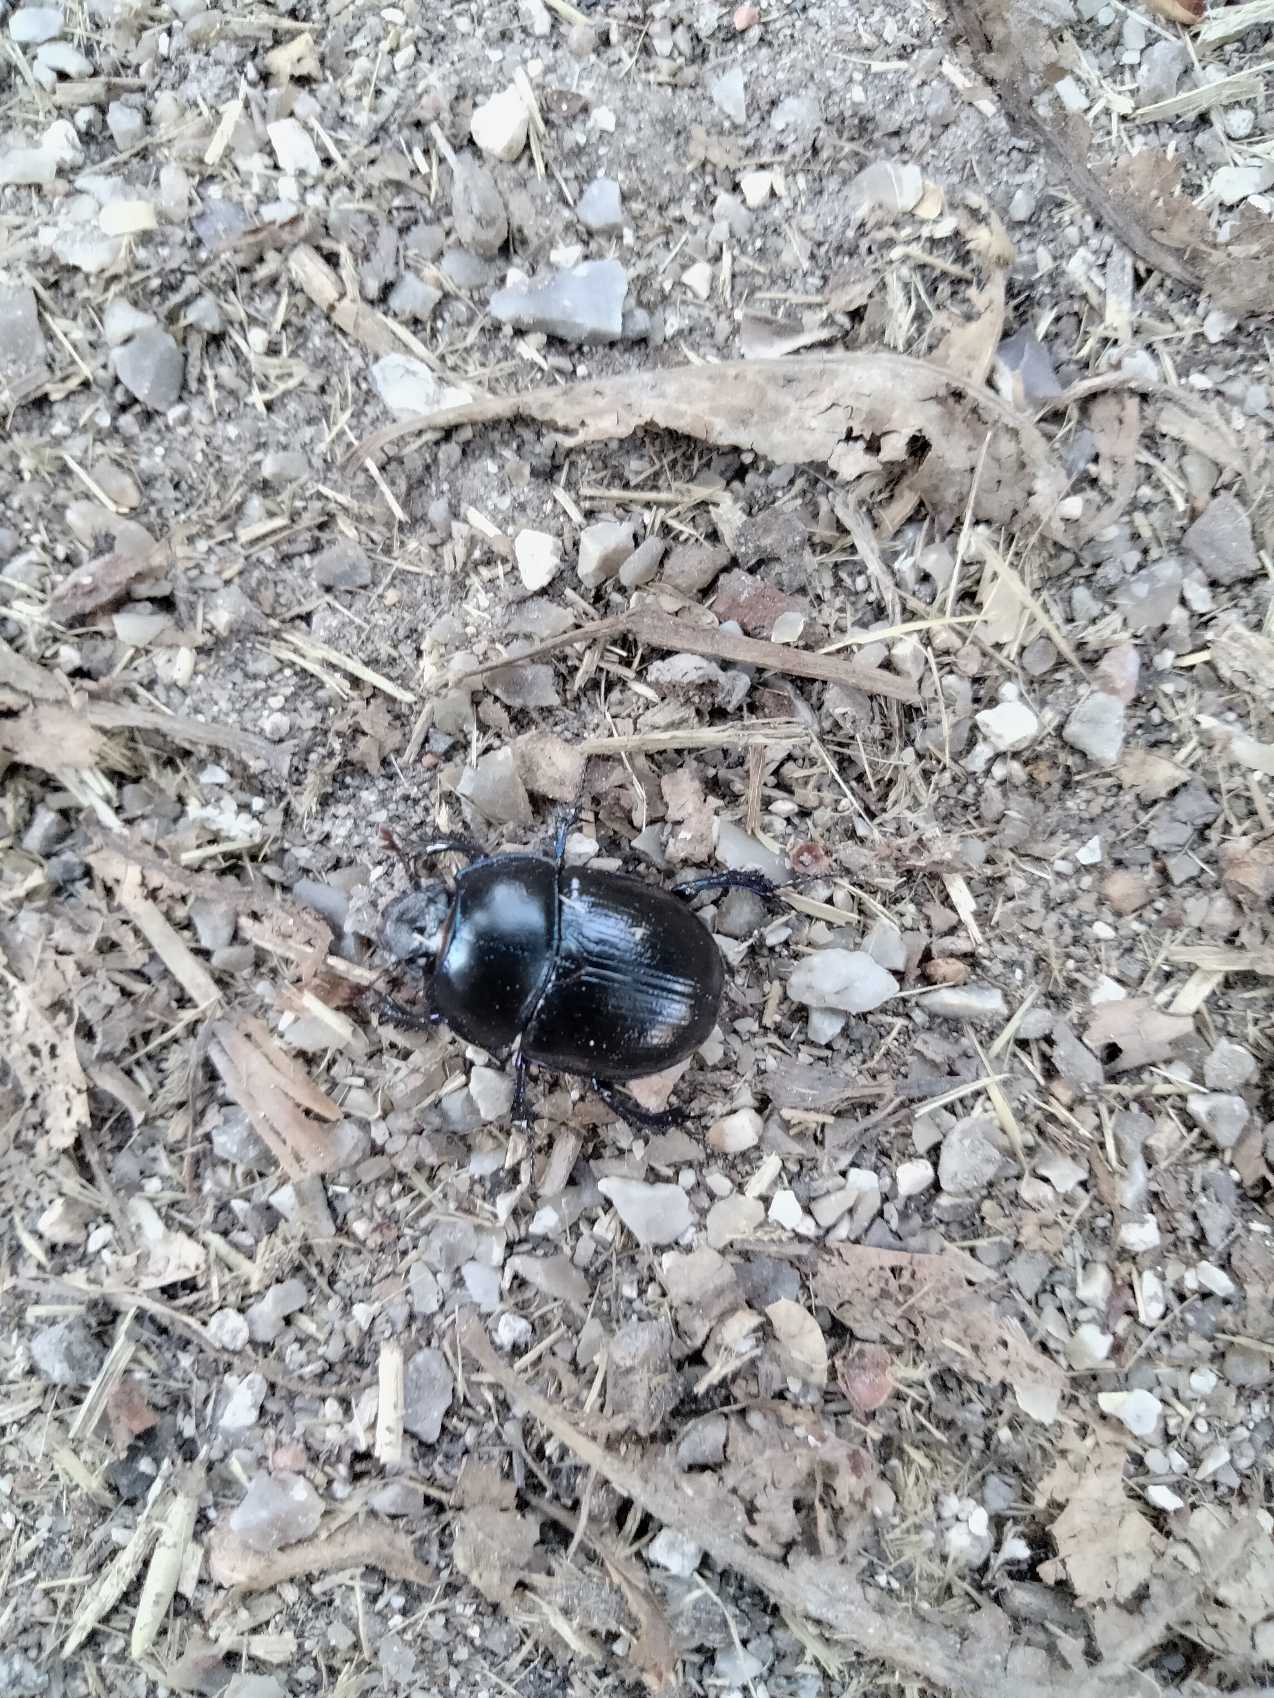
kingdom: Animalia
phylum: Arthropoda
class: Insecta
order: Coleoptera
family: Geotrupidae
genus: Anoplotrupes
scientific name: Anoplotrupes stercorosus
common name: Skovskarnbasse
